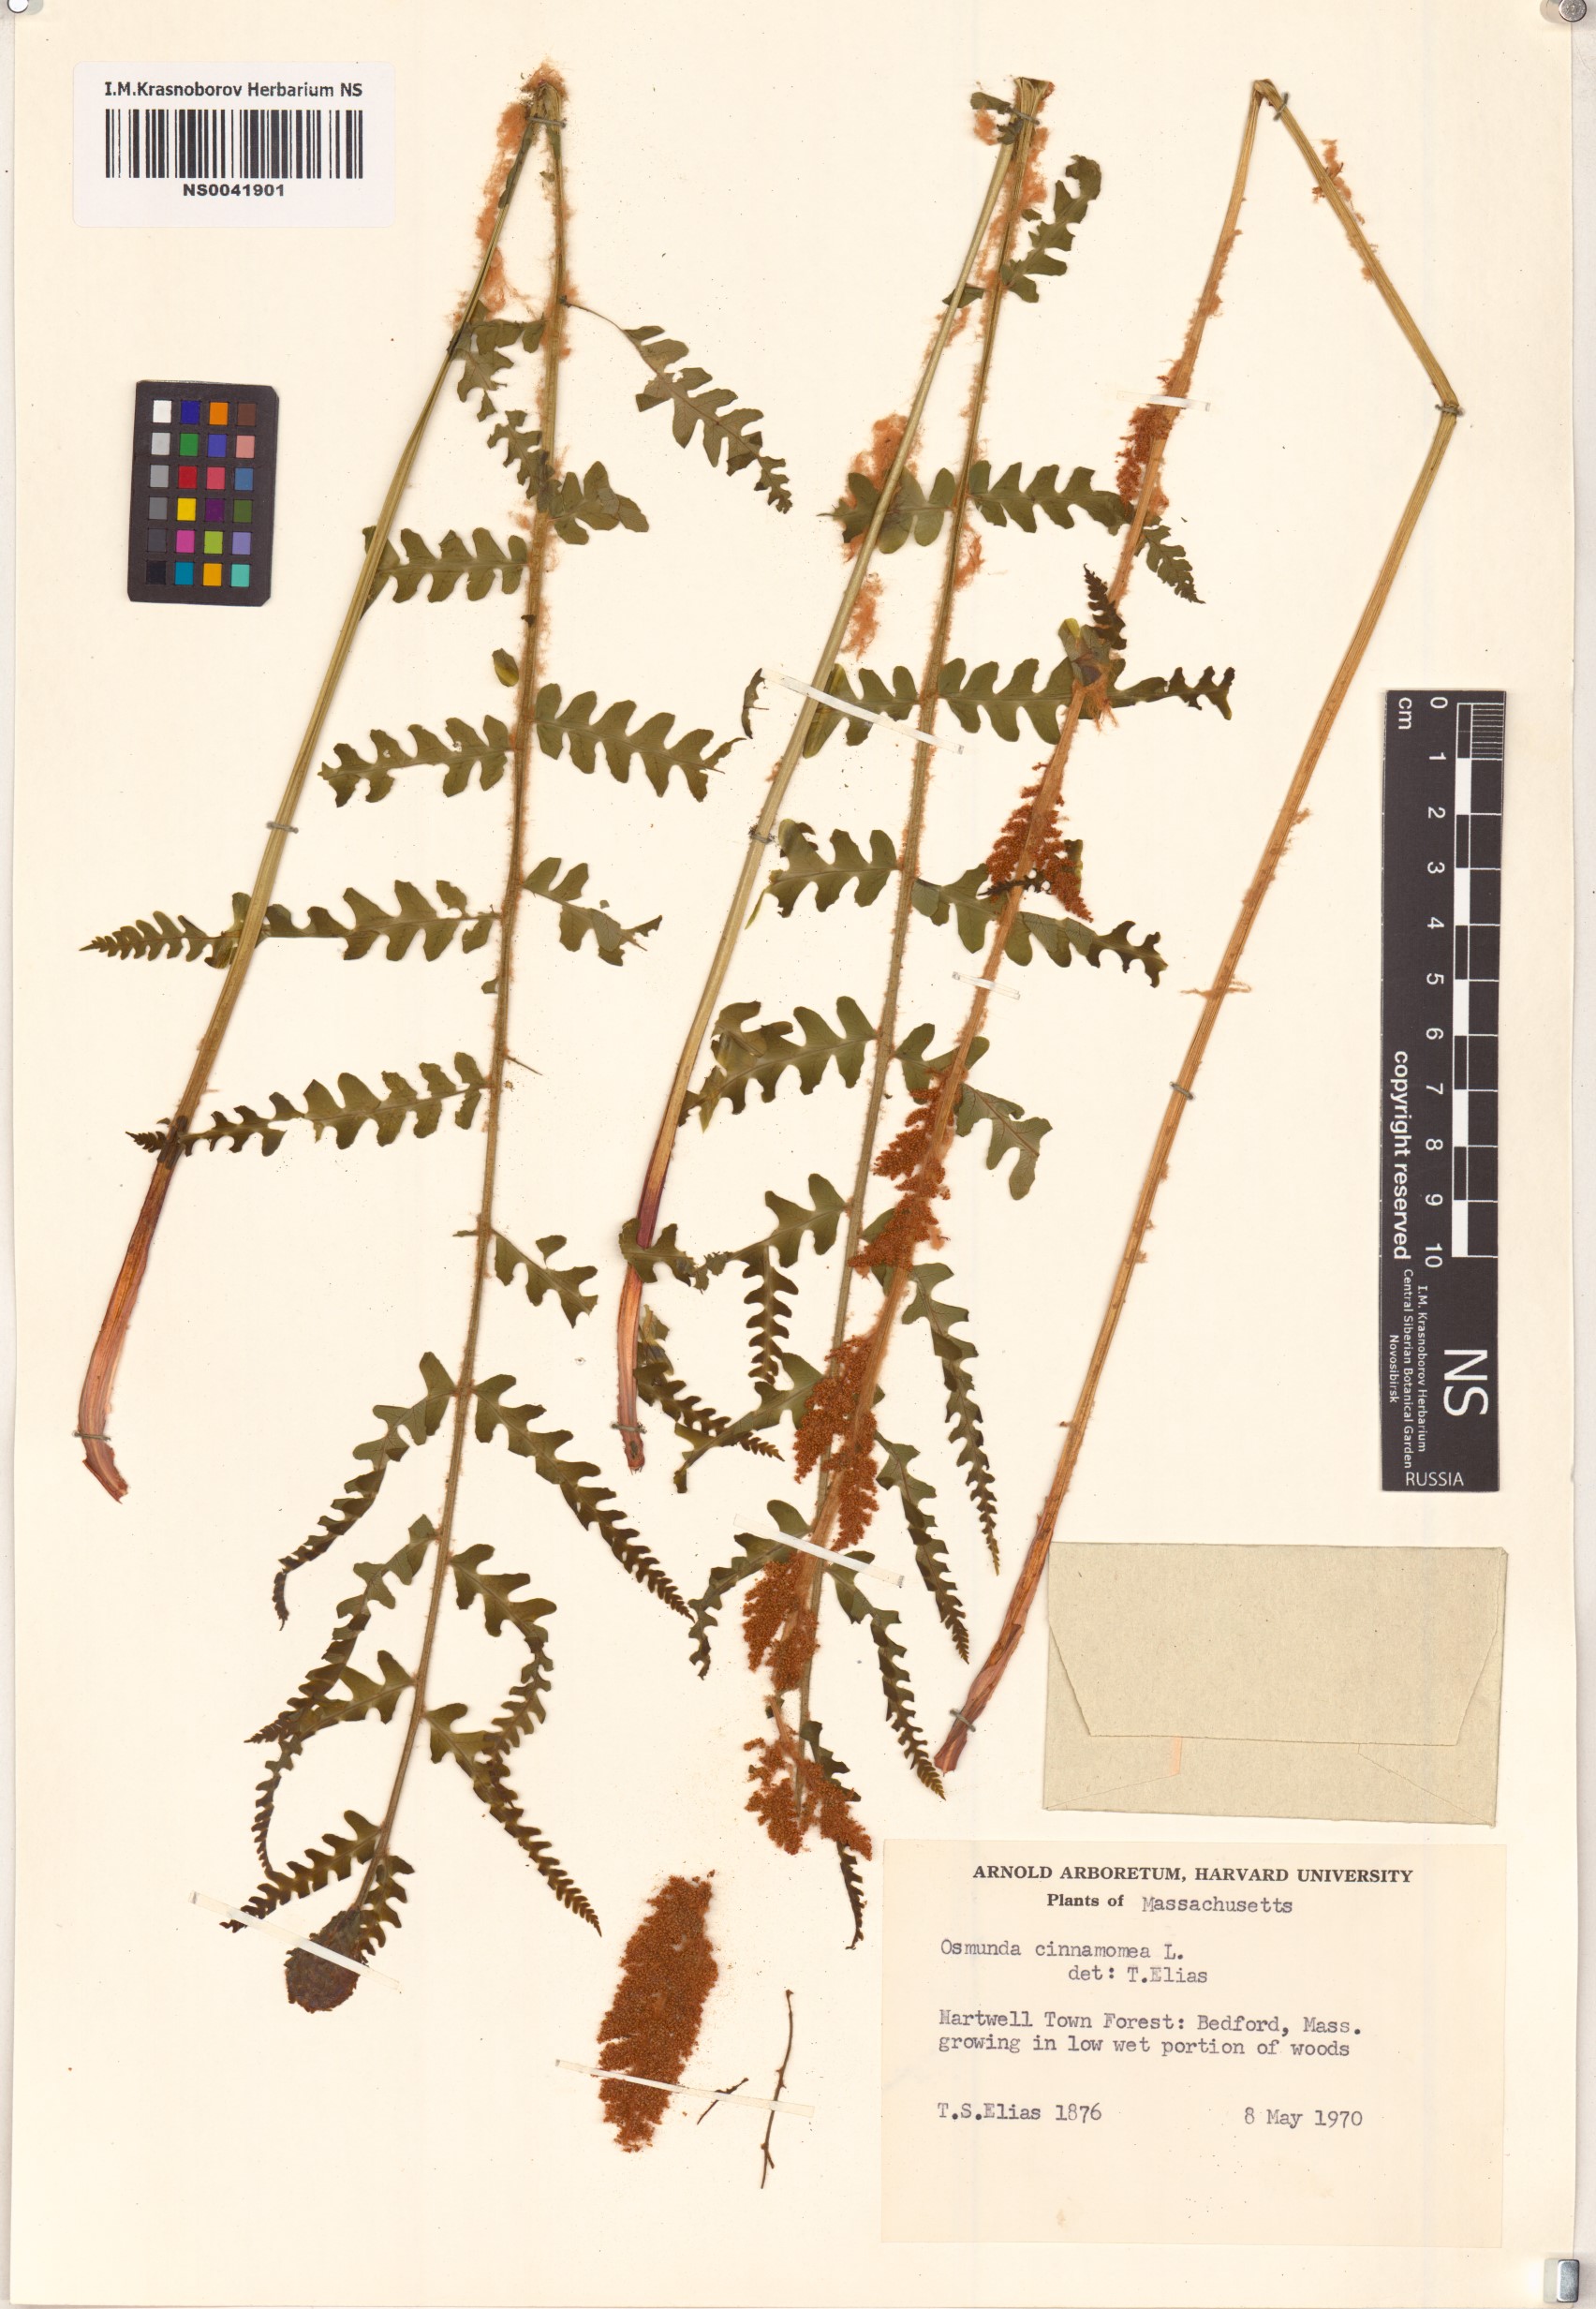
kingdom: Plantae
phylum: Tracheophyta
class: Polypodiopsida
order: Osmundales
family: Osmundaceae
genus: Osmundastrum
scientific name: Osmundastrum cinnamomeum
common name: Cinnamon fern
